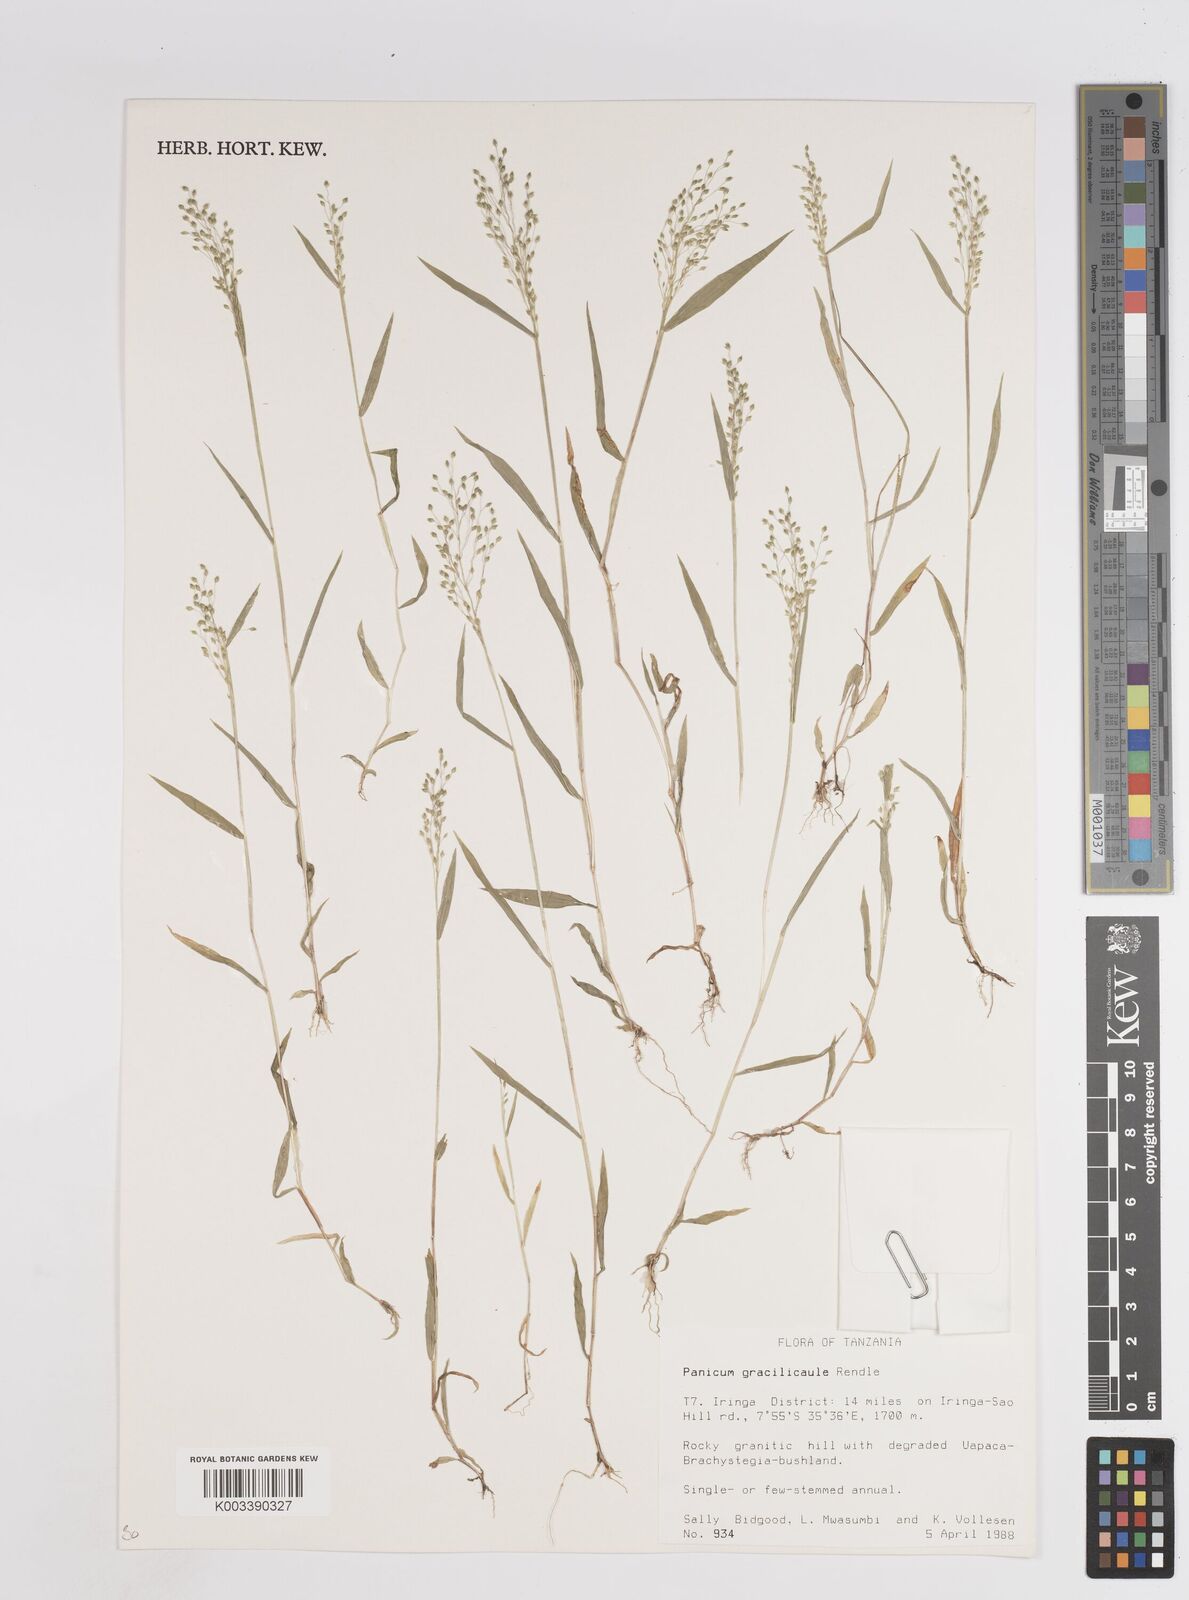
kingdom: Plantae
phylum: Tracheophyta
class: Liliopsida
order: Poales
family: Poaceae
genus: Trichanthecium
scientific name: Trichanthecium gracilicaule
